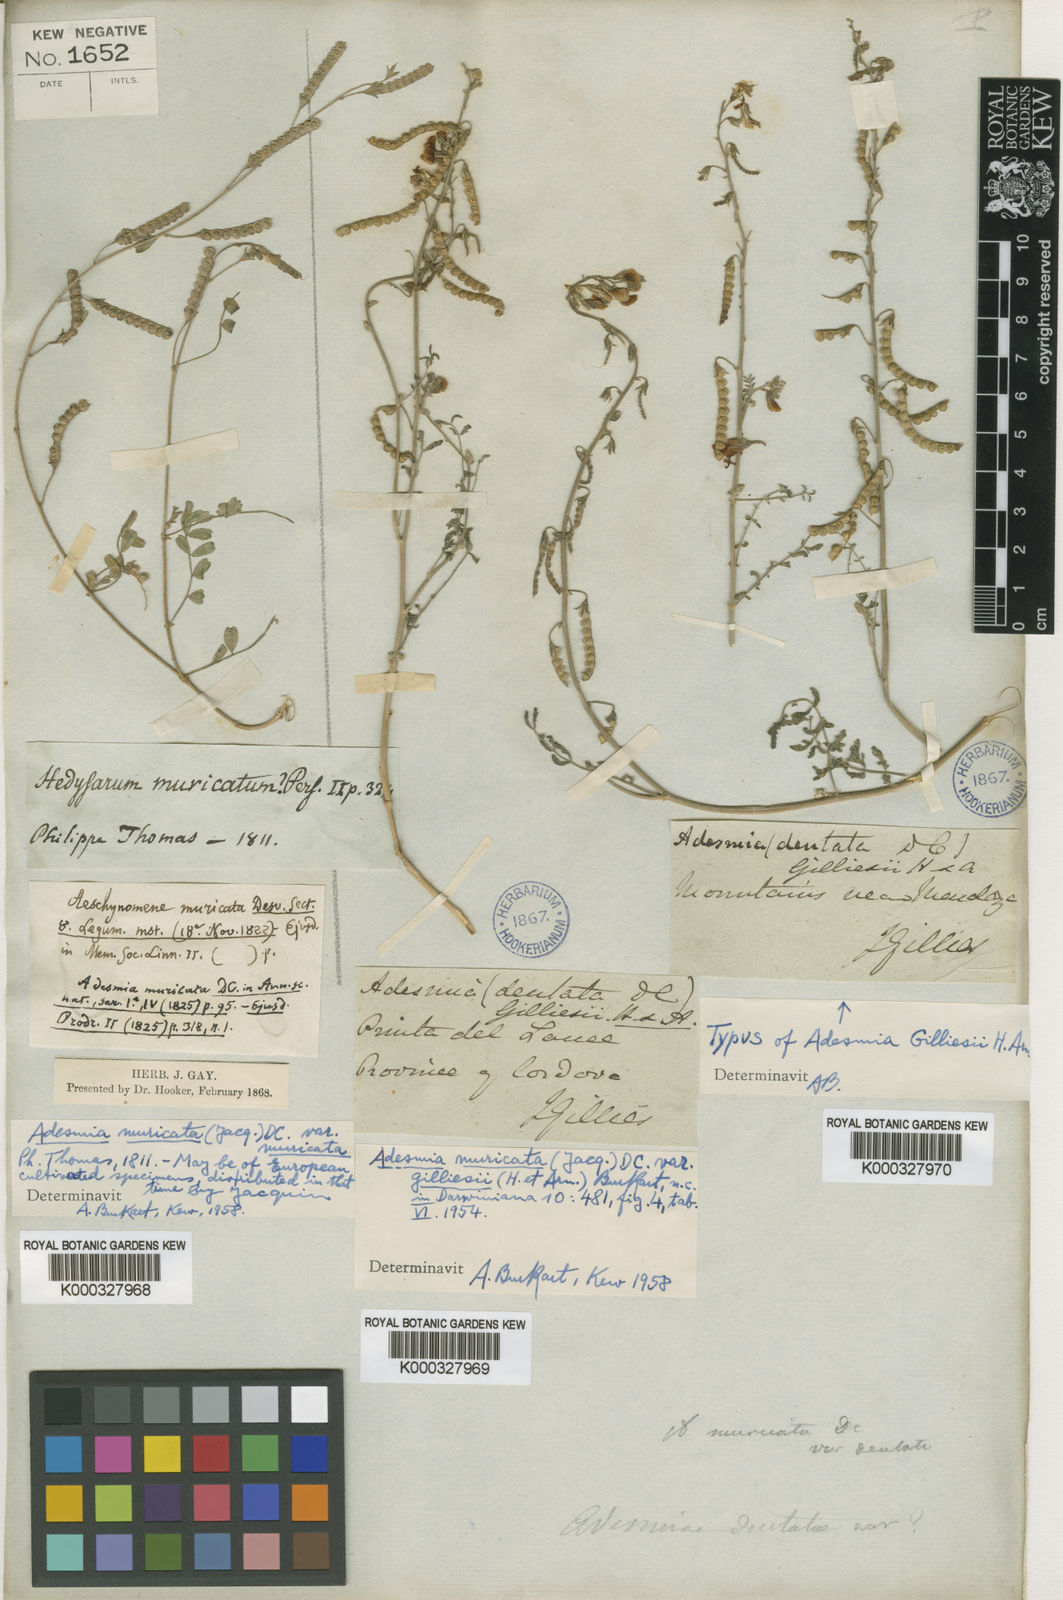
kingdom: Plantae
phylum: Tracheophyta
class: Magnoliopsida
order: Fabales
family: Fabaceae
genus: Adesmia
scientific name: Adesmia muricata
